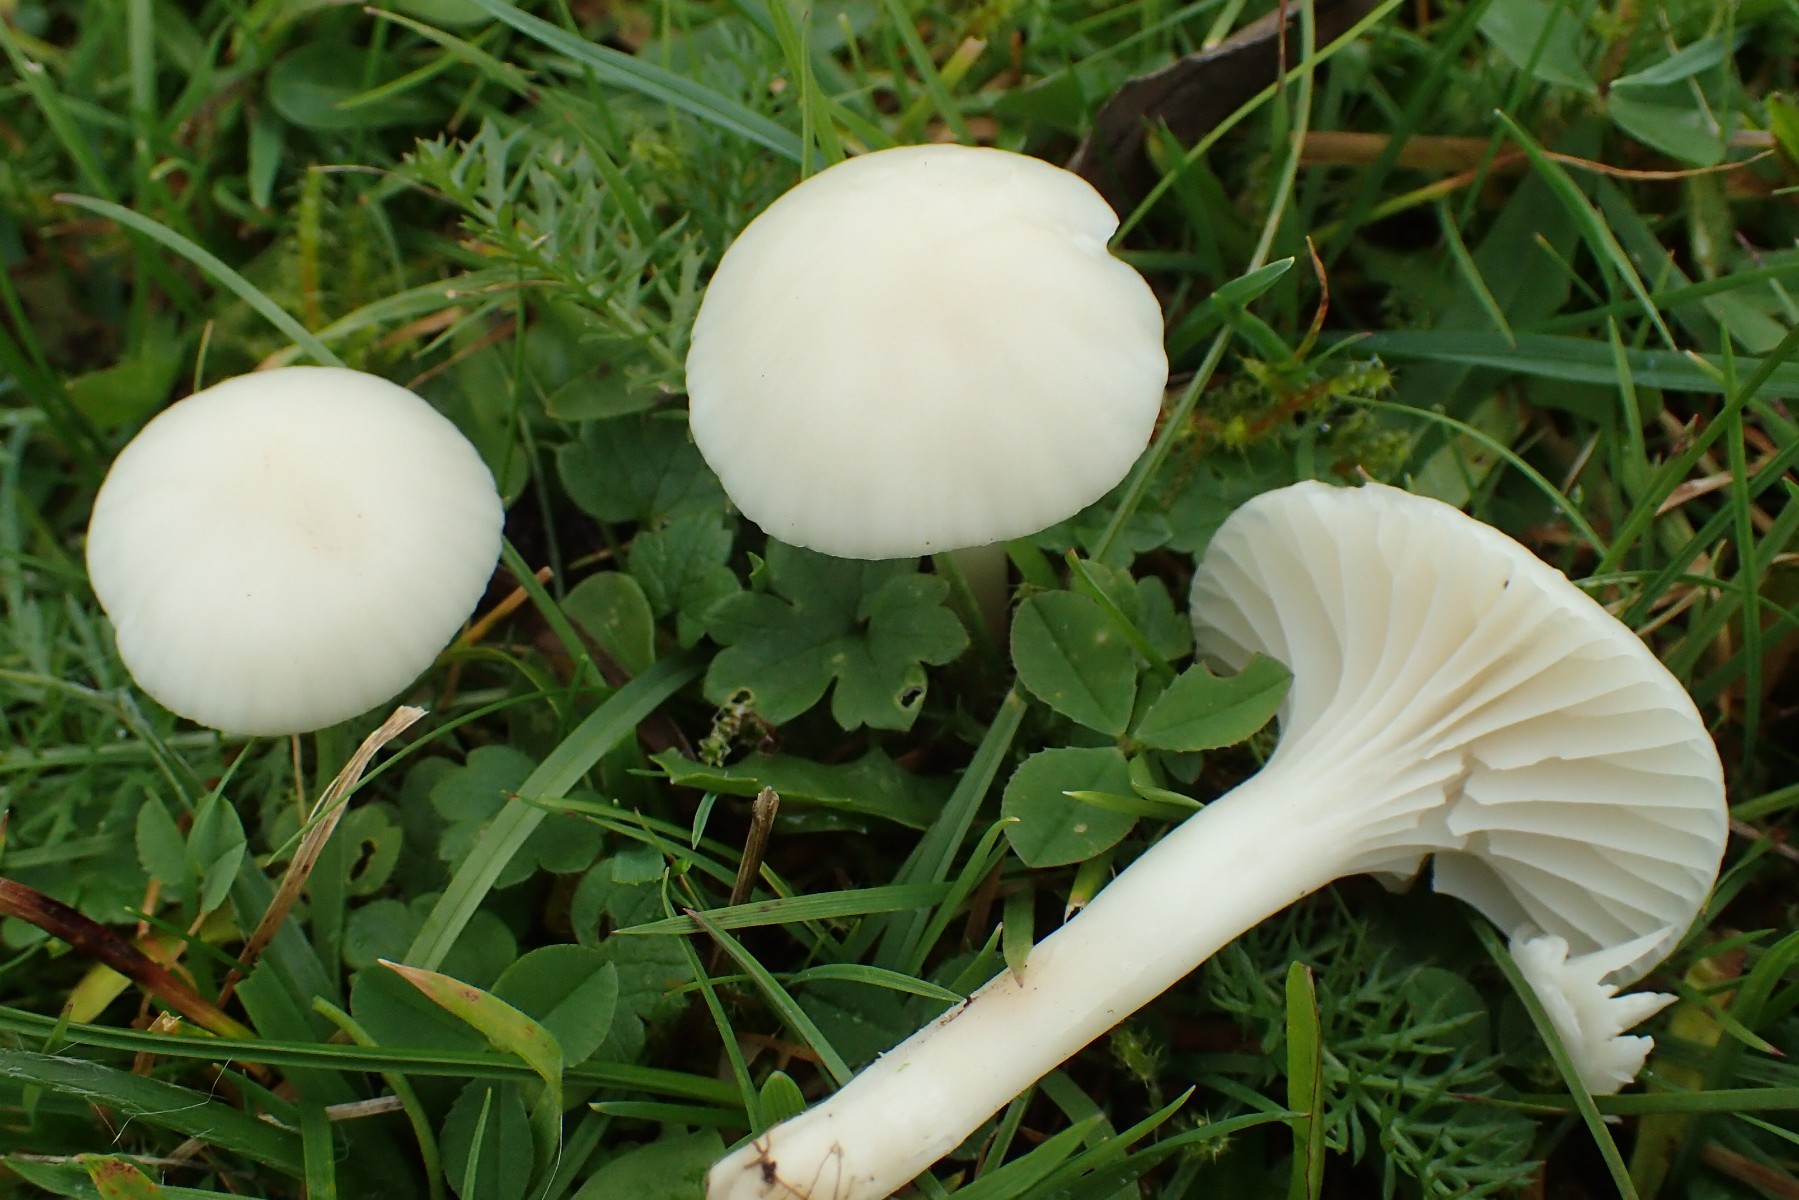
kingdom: Fungi
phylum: Basidiomycota
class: Agaricomycetes
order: Agaricales
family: Hygrophoraceae
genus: Cuphophyllus
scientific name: Cuphophyllus virgineus
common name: snehvid vokshat
